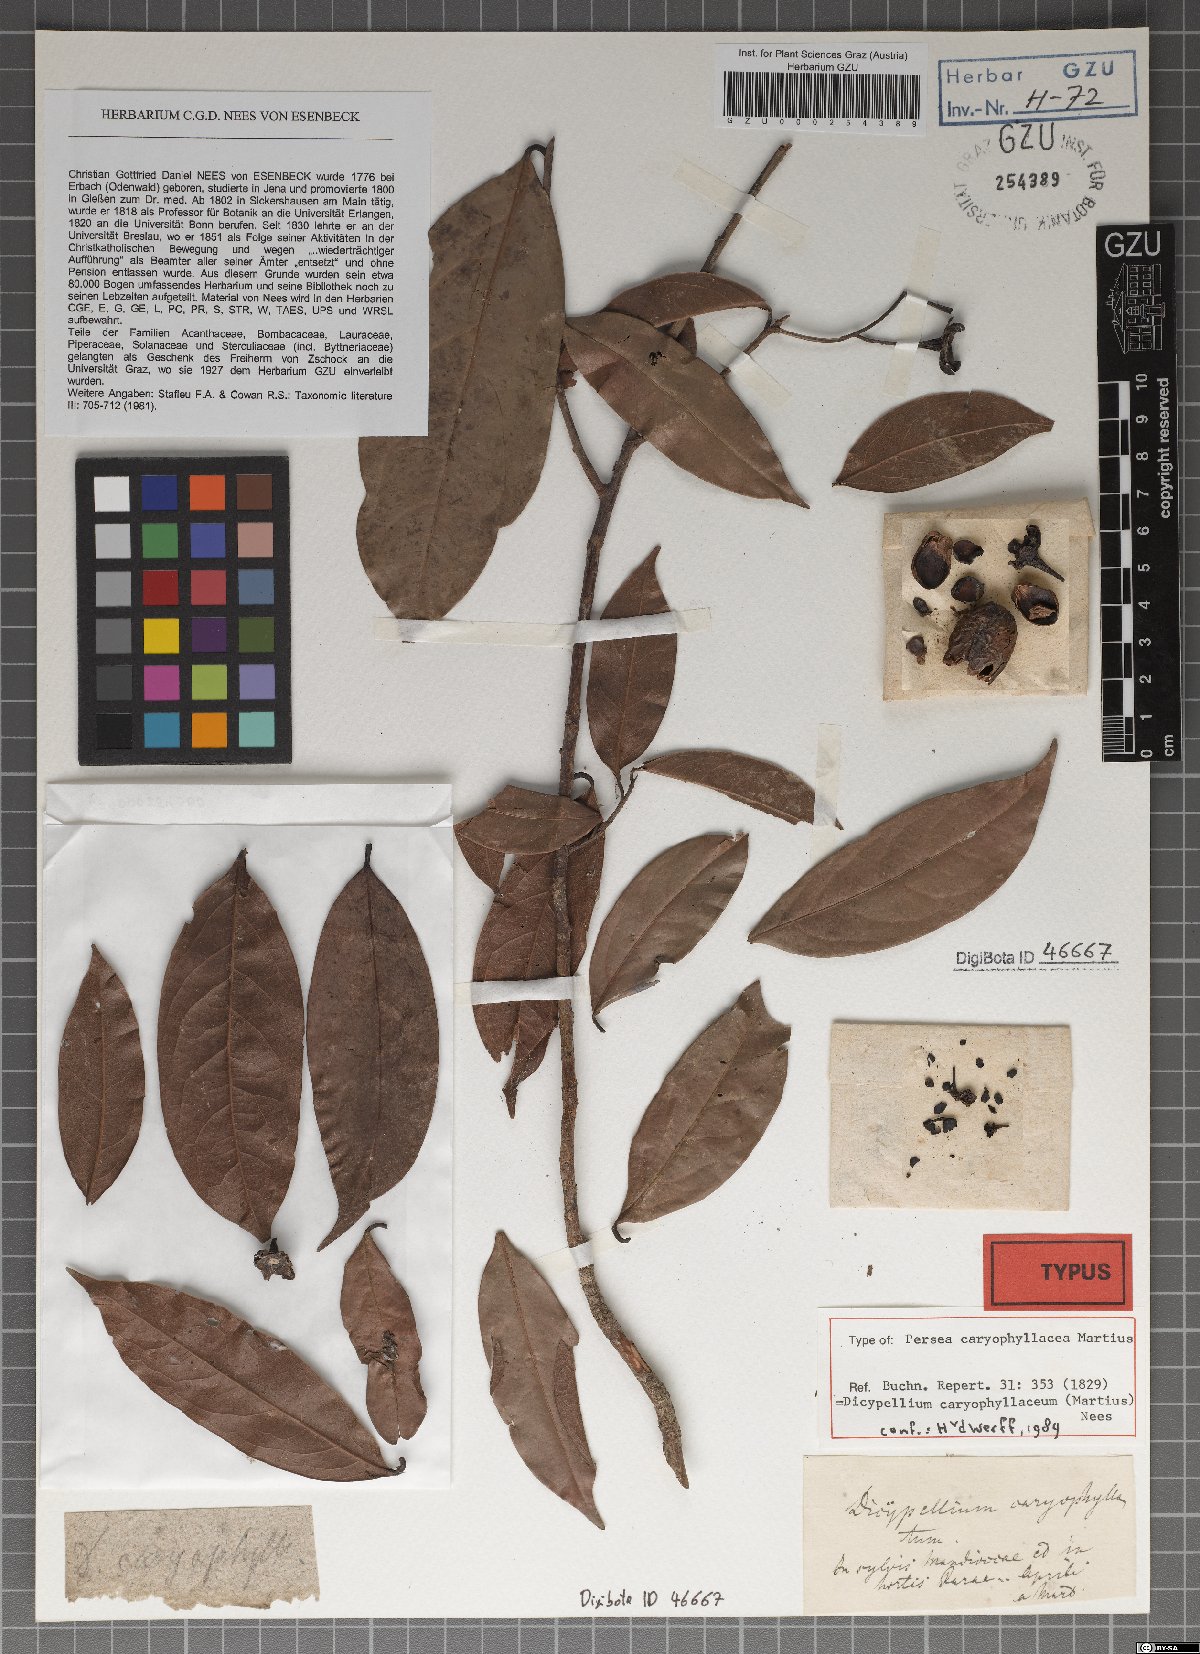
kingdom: Plantae
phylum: Tracheophyta
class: Magnoliopsida
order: Laurales
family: Lauraceae
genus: Dicypellium
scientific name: Dicypellium caryophyllaceum
